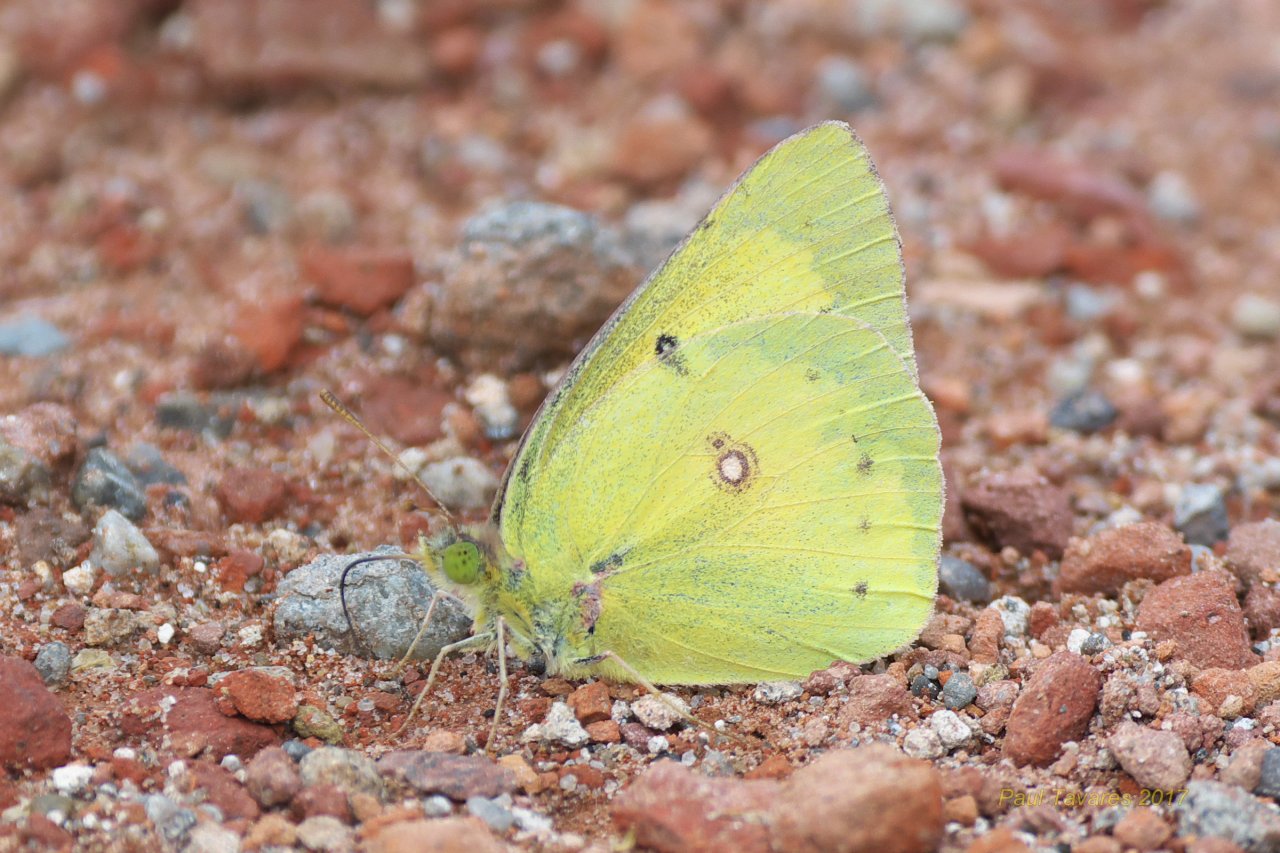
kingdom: Animalia
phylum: Arthropoda
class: Insecta
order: Lepidoptera
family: Pieridae
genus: Colias
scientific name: Colias philodice
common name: Clouded Sulphur
